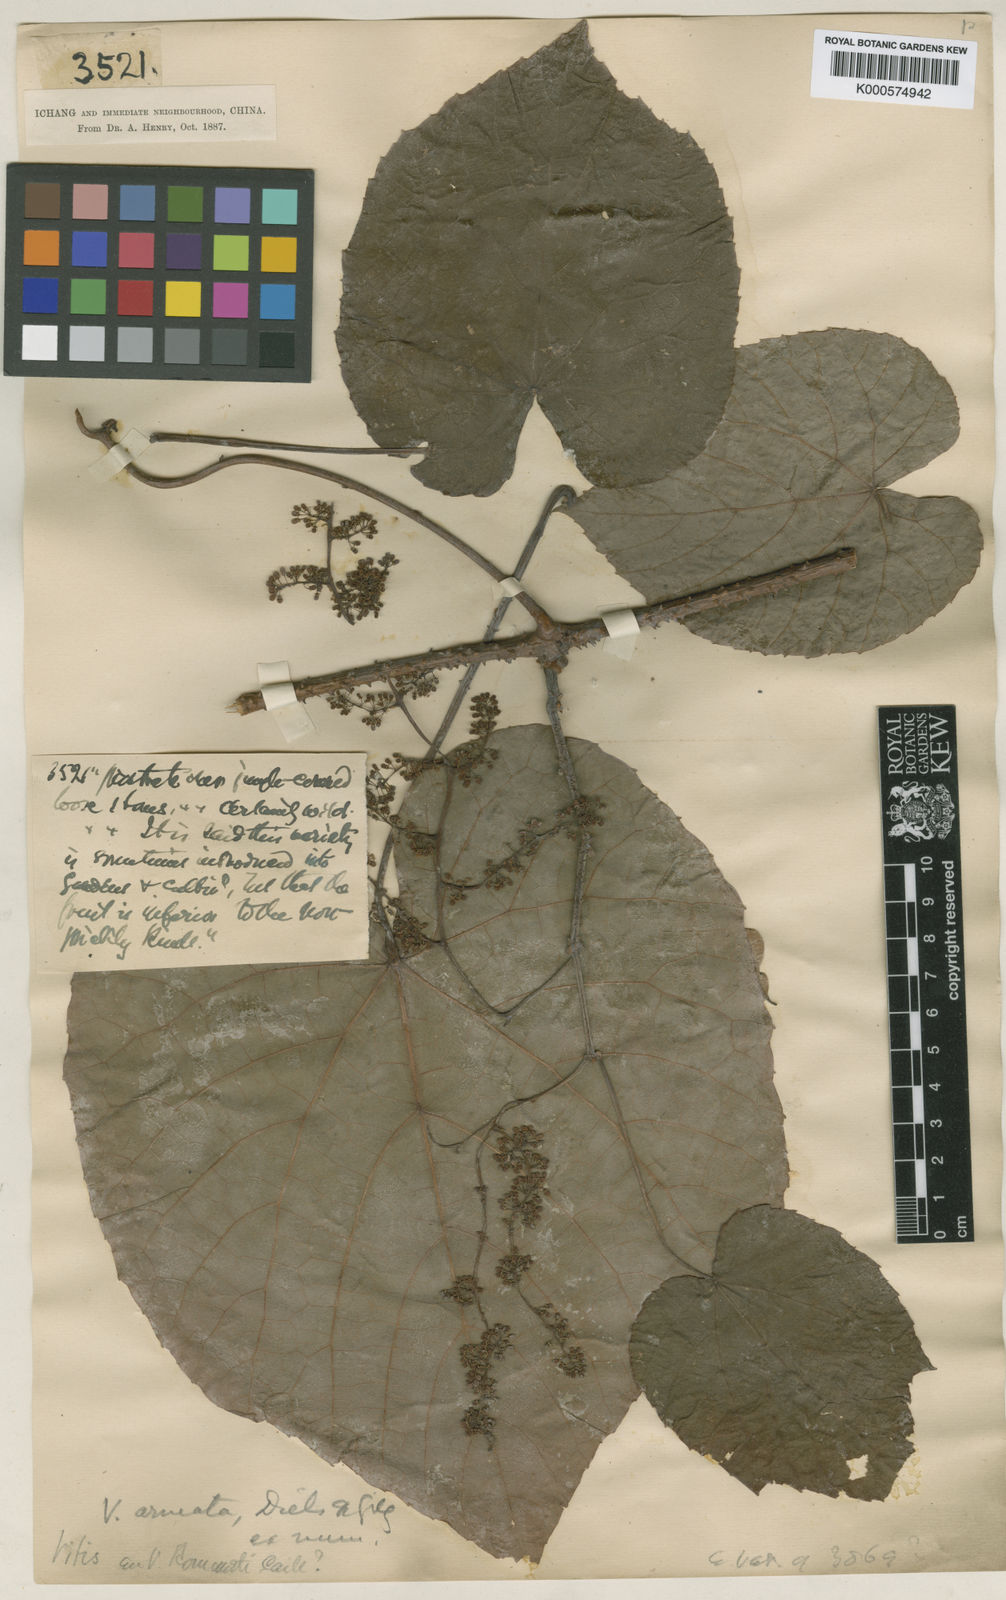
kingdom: Plantae
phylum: Tracheophyta
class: Magnoliopsida
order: Vitales
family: Vitaceae
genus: Vitis
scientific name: Vitis
